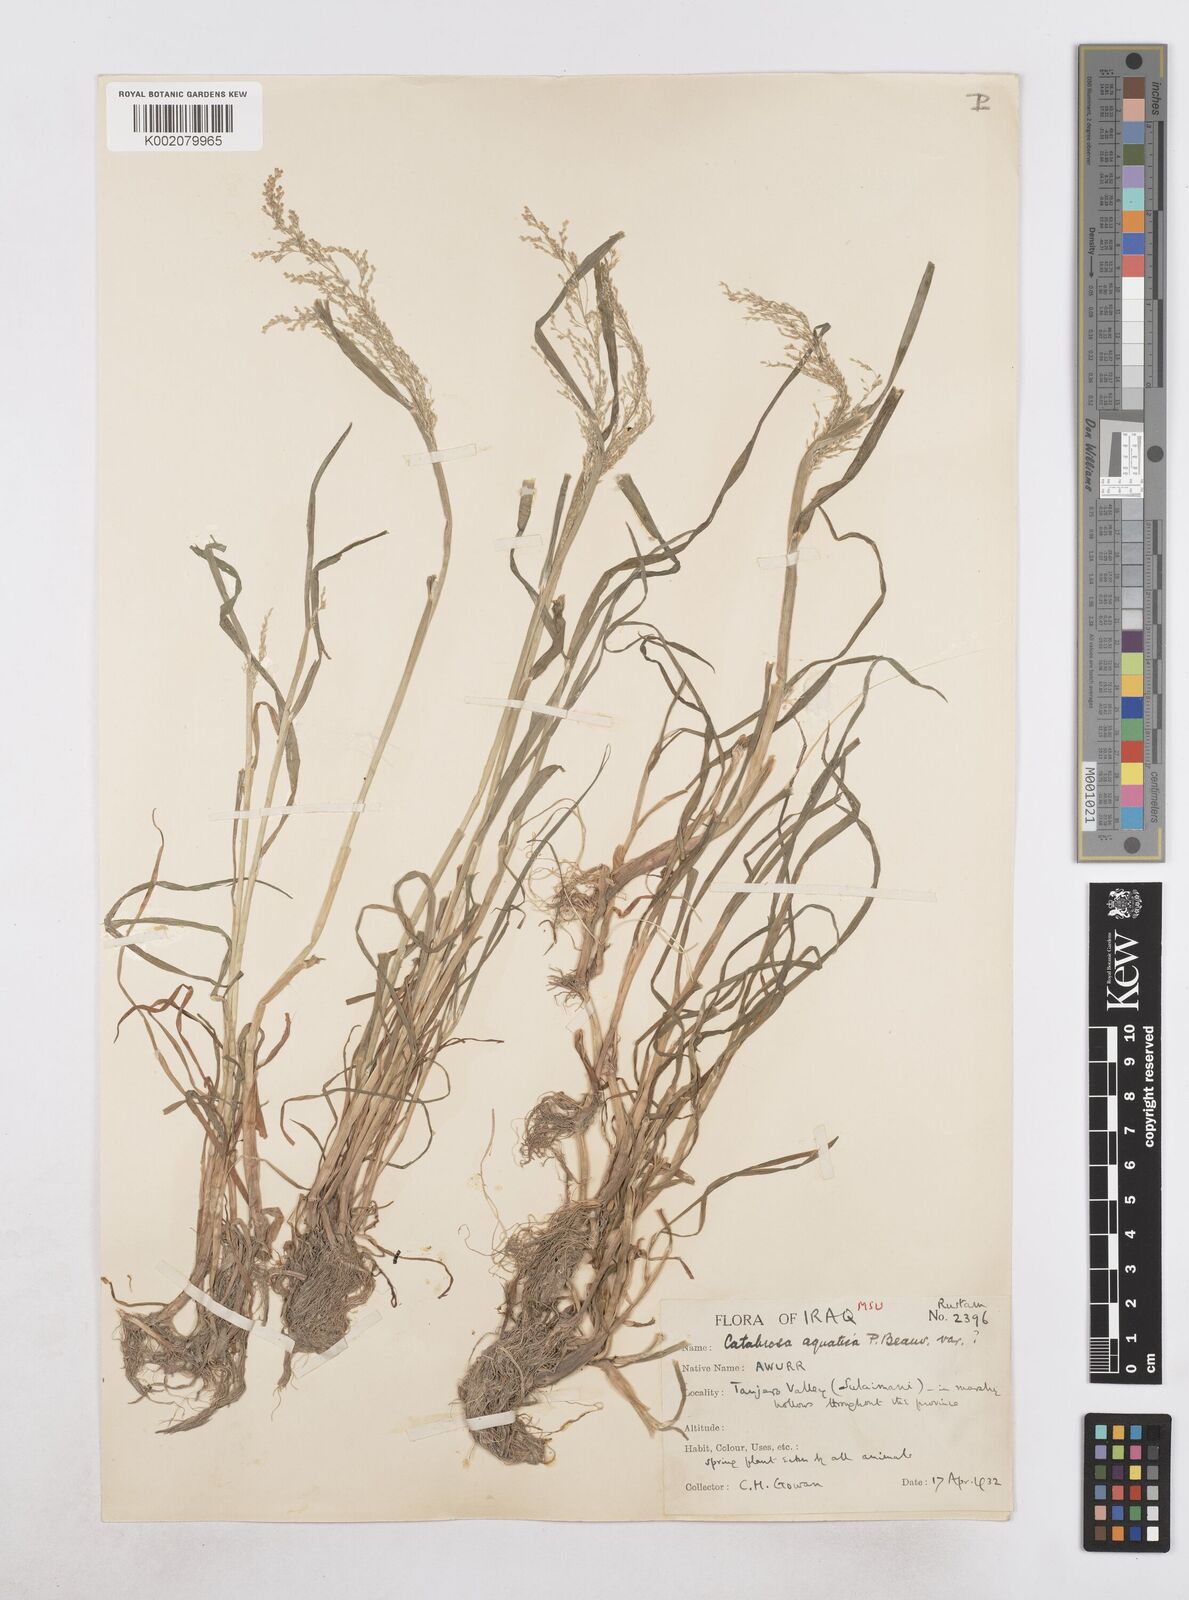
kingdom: Plantae
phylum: Tracheophyta
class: Liliopsida
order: Poales
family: Poaceae
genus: Catabrosa
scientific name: Catabrosa aquatica
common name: Whorl-grass
